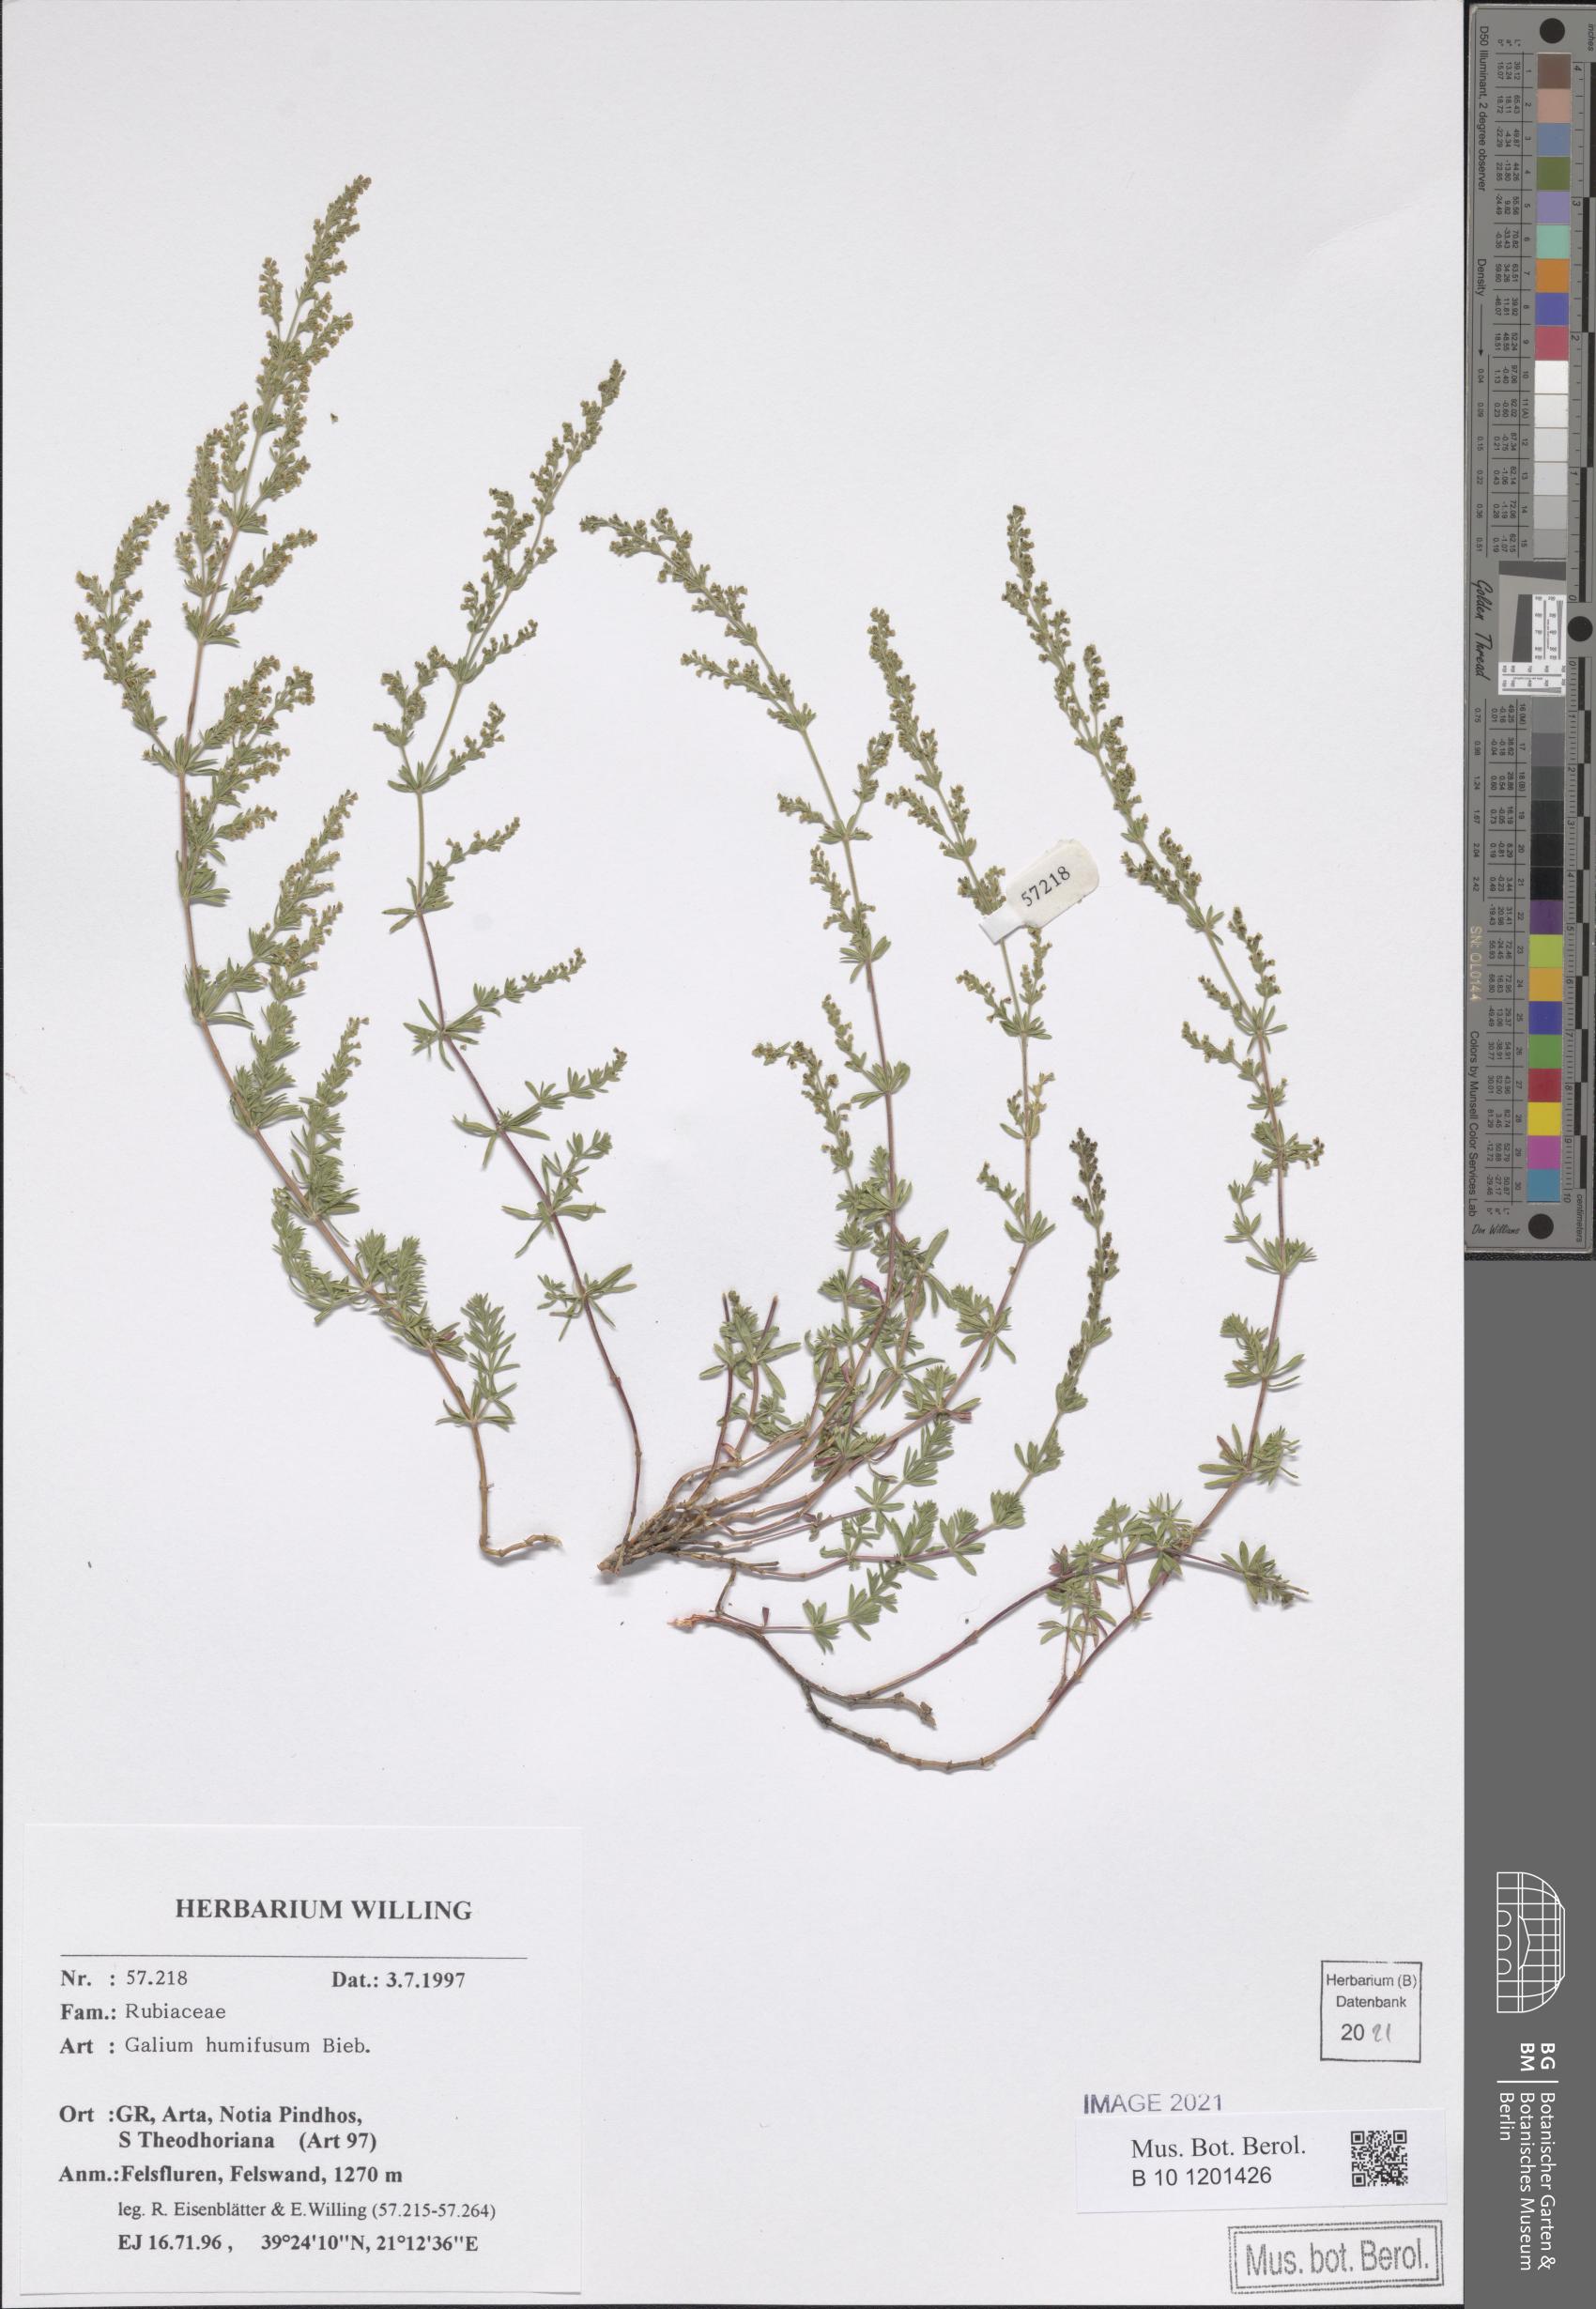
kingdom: Plantae
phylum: Tracheophyta
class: Magnoliopsida
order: Gentianales
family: Rubiaceae
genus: Galium
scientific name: Galium humifusum
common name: Spreading bedstraw
